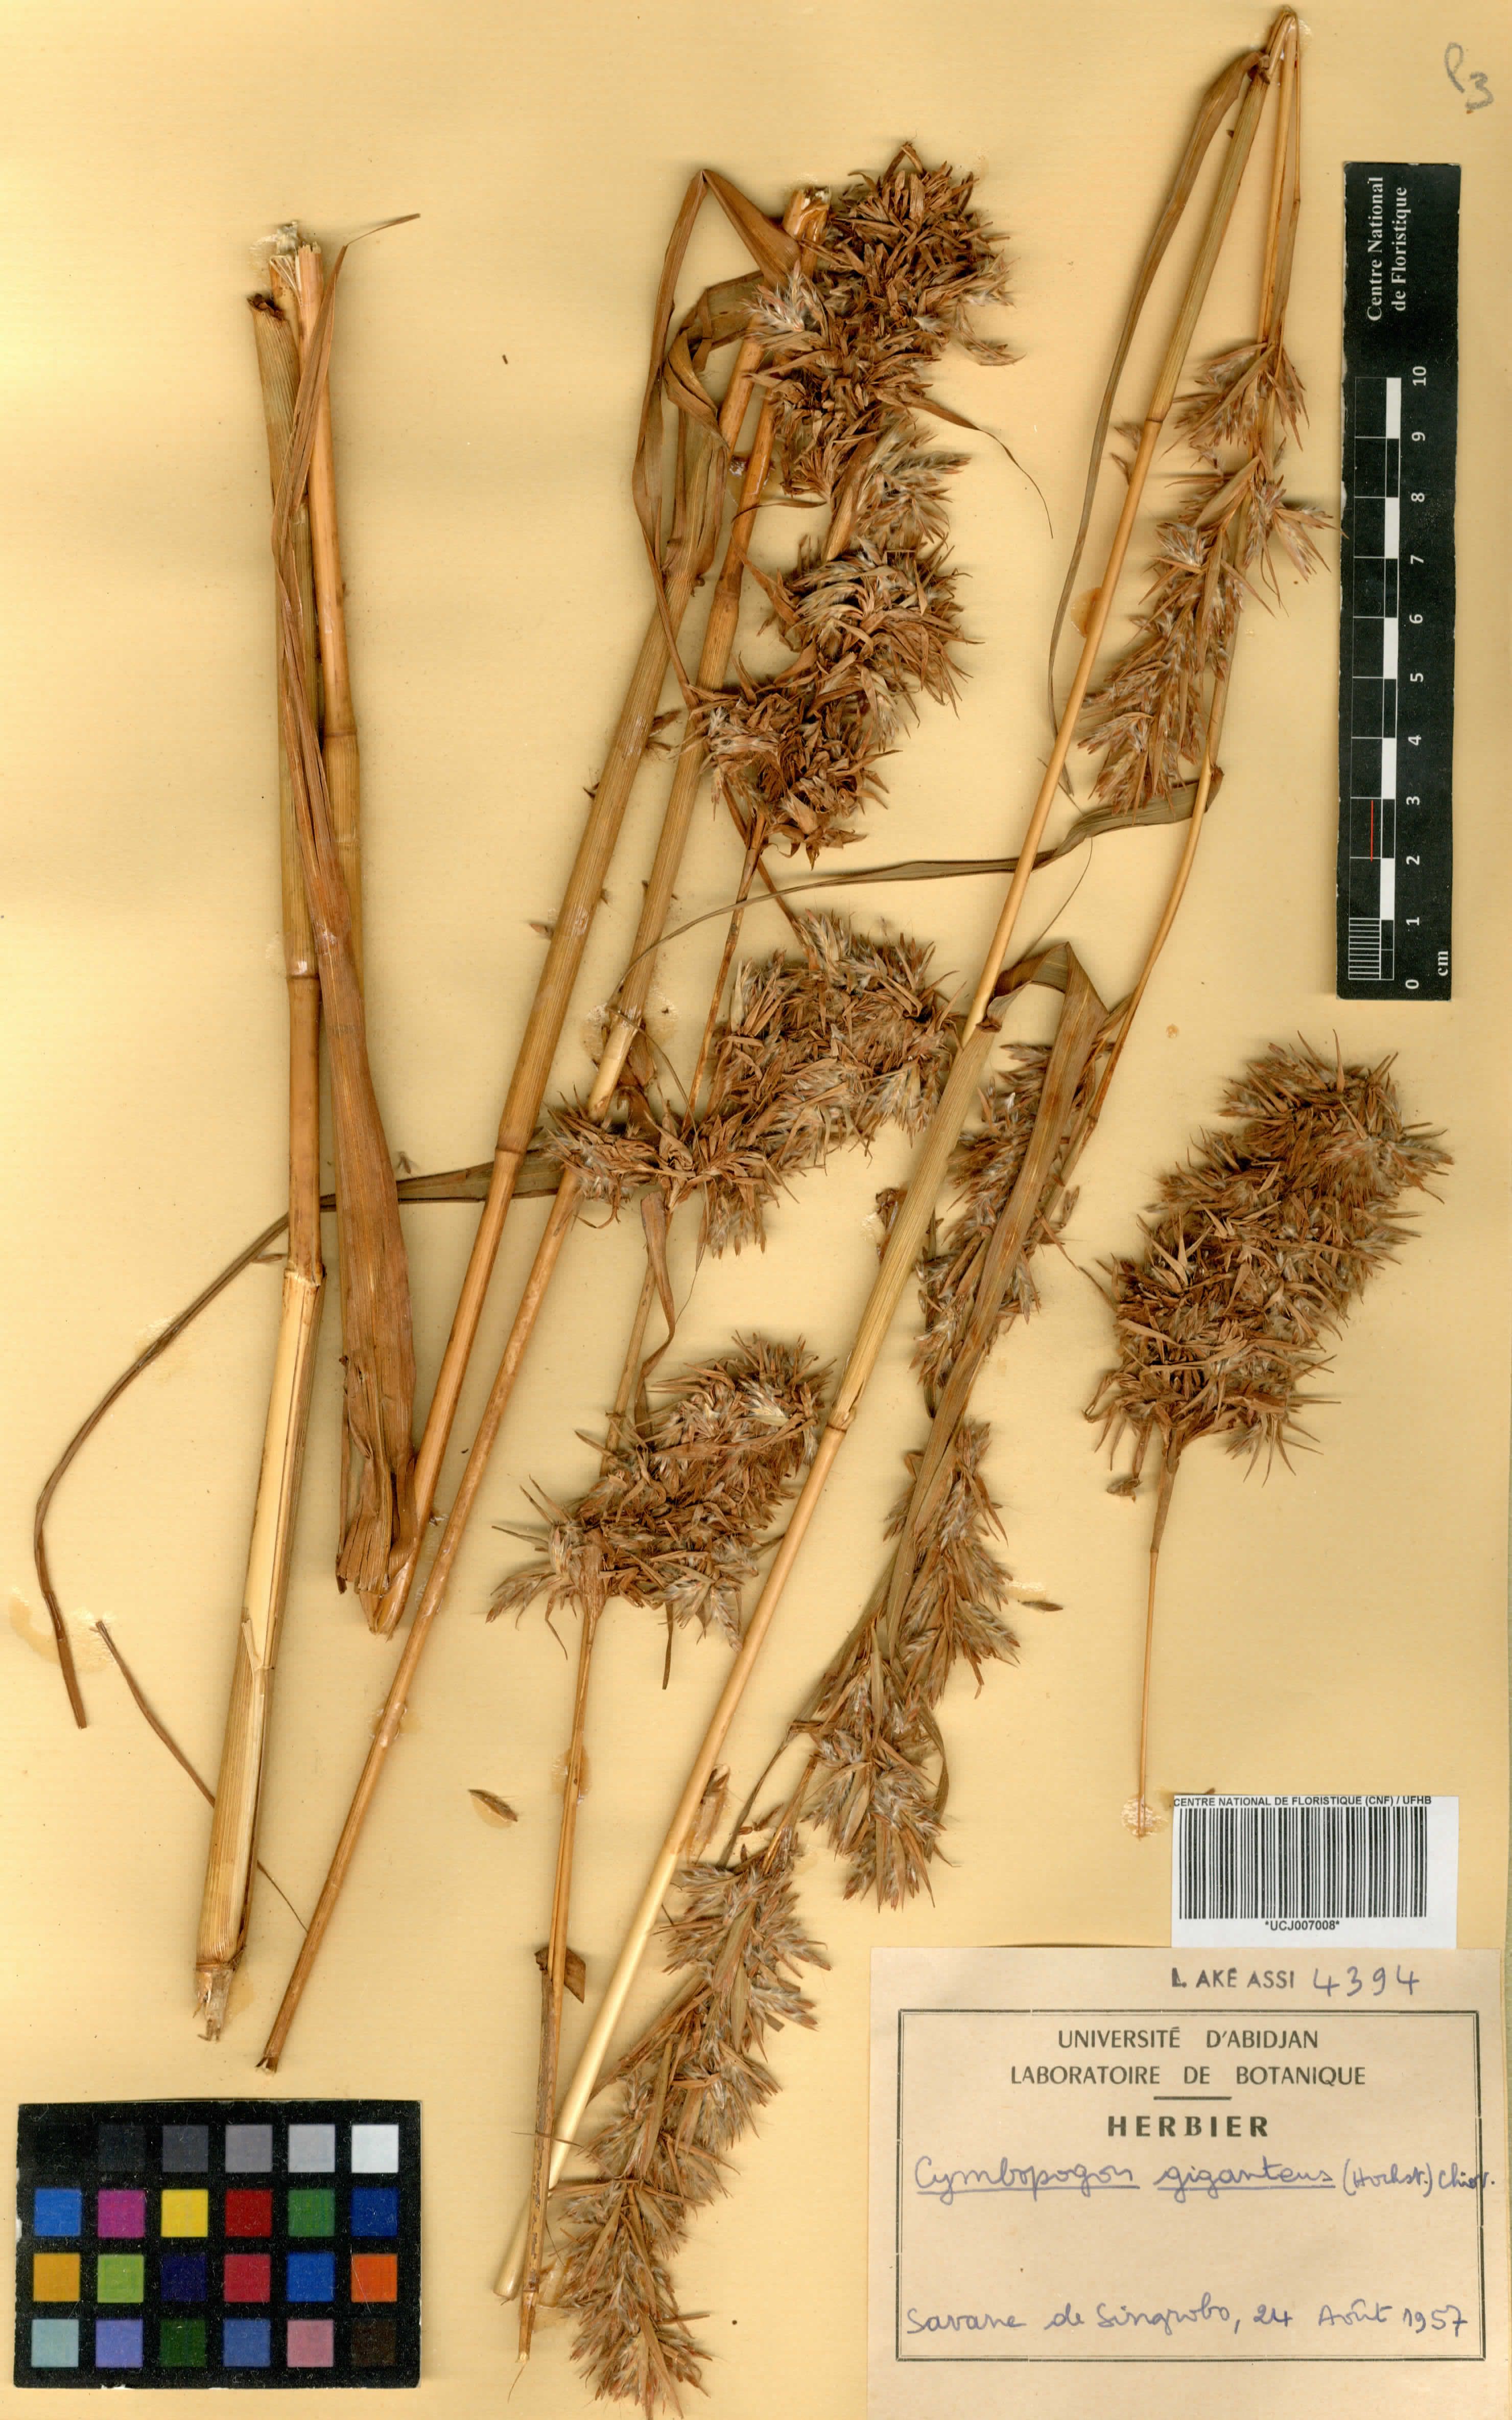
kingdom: Plantae
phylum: Tracheophyta
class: Liliopsida
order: Poales
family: Poaceae
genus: Cymbopogon
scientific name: Cymbopogon giganteus
